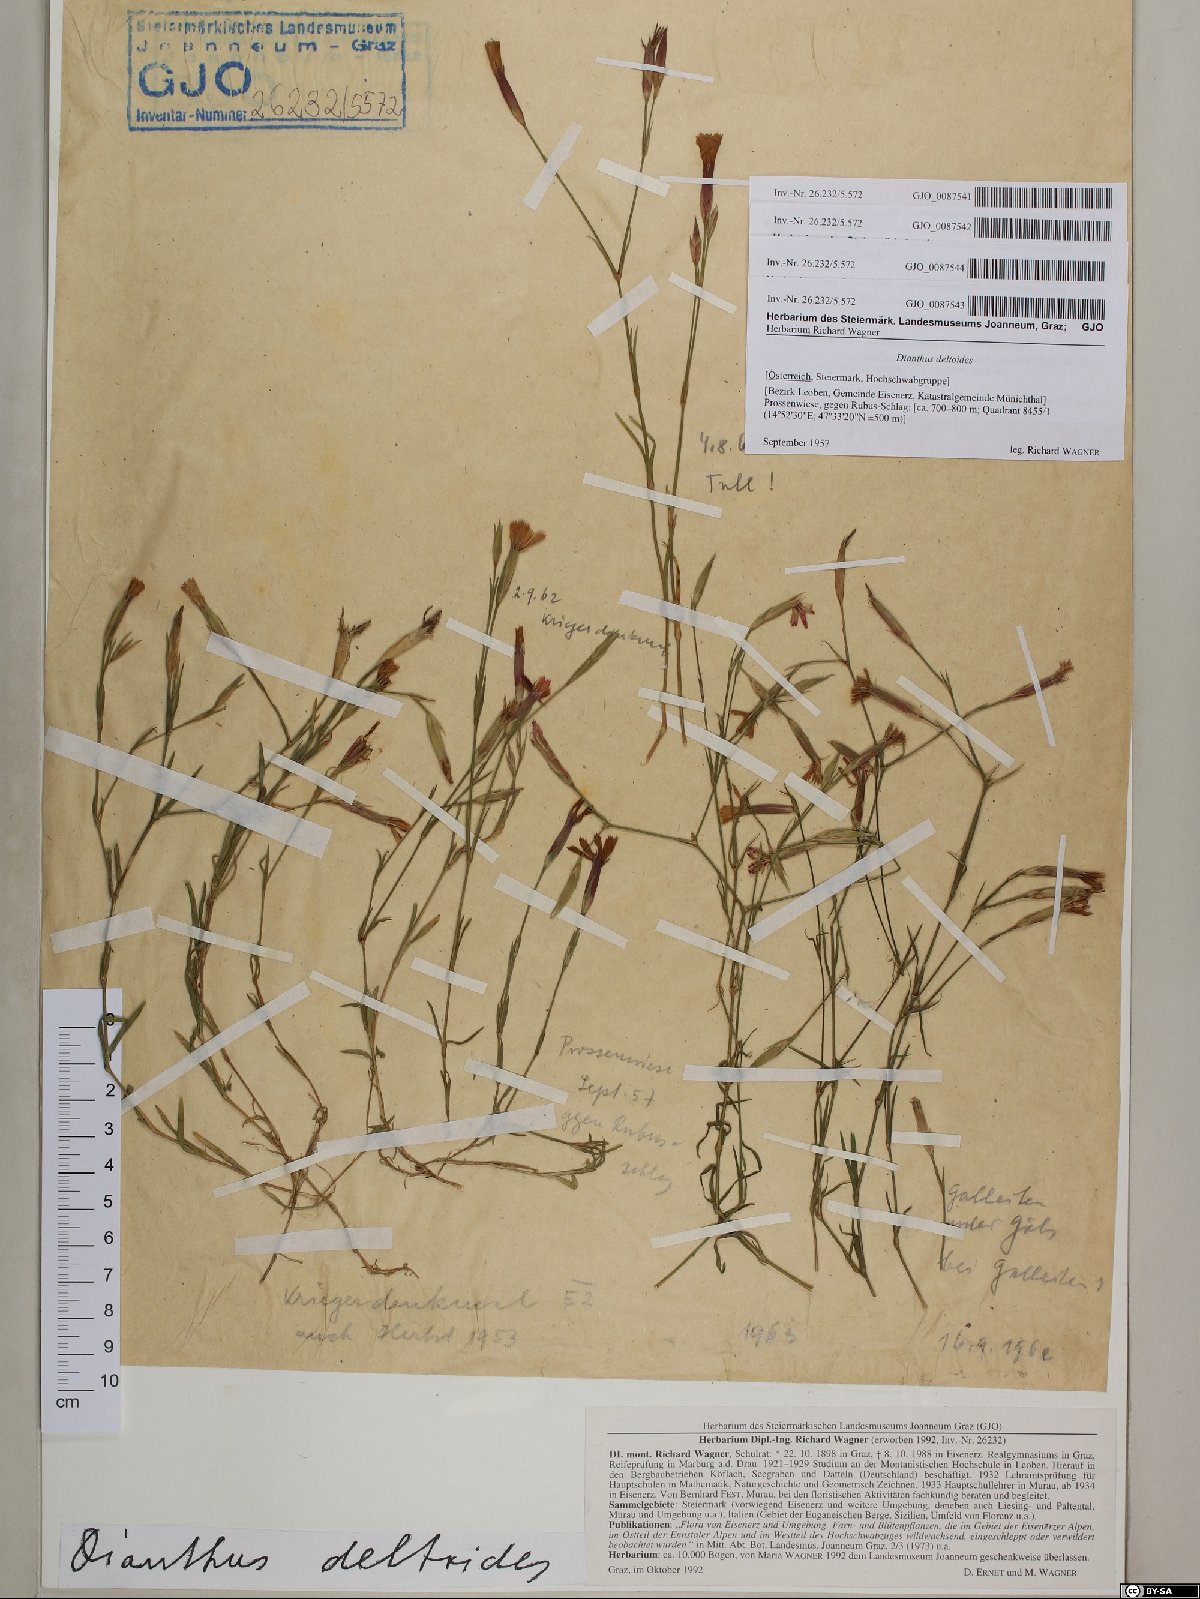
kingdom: Plantae
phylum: Tracheophyta
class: Magnoliopsida
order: Caryophyllales
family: Caryophyllaceae
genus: Dianthus
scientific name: Dianthus deltoides
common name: Maiden pink
